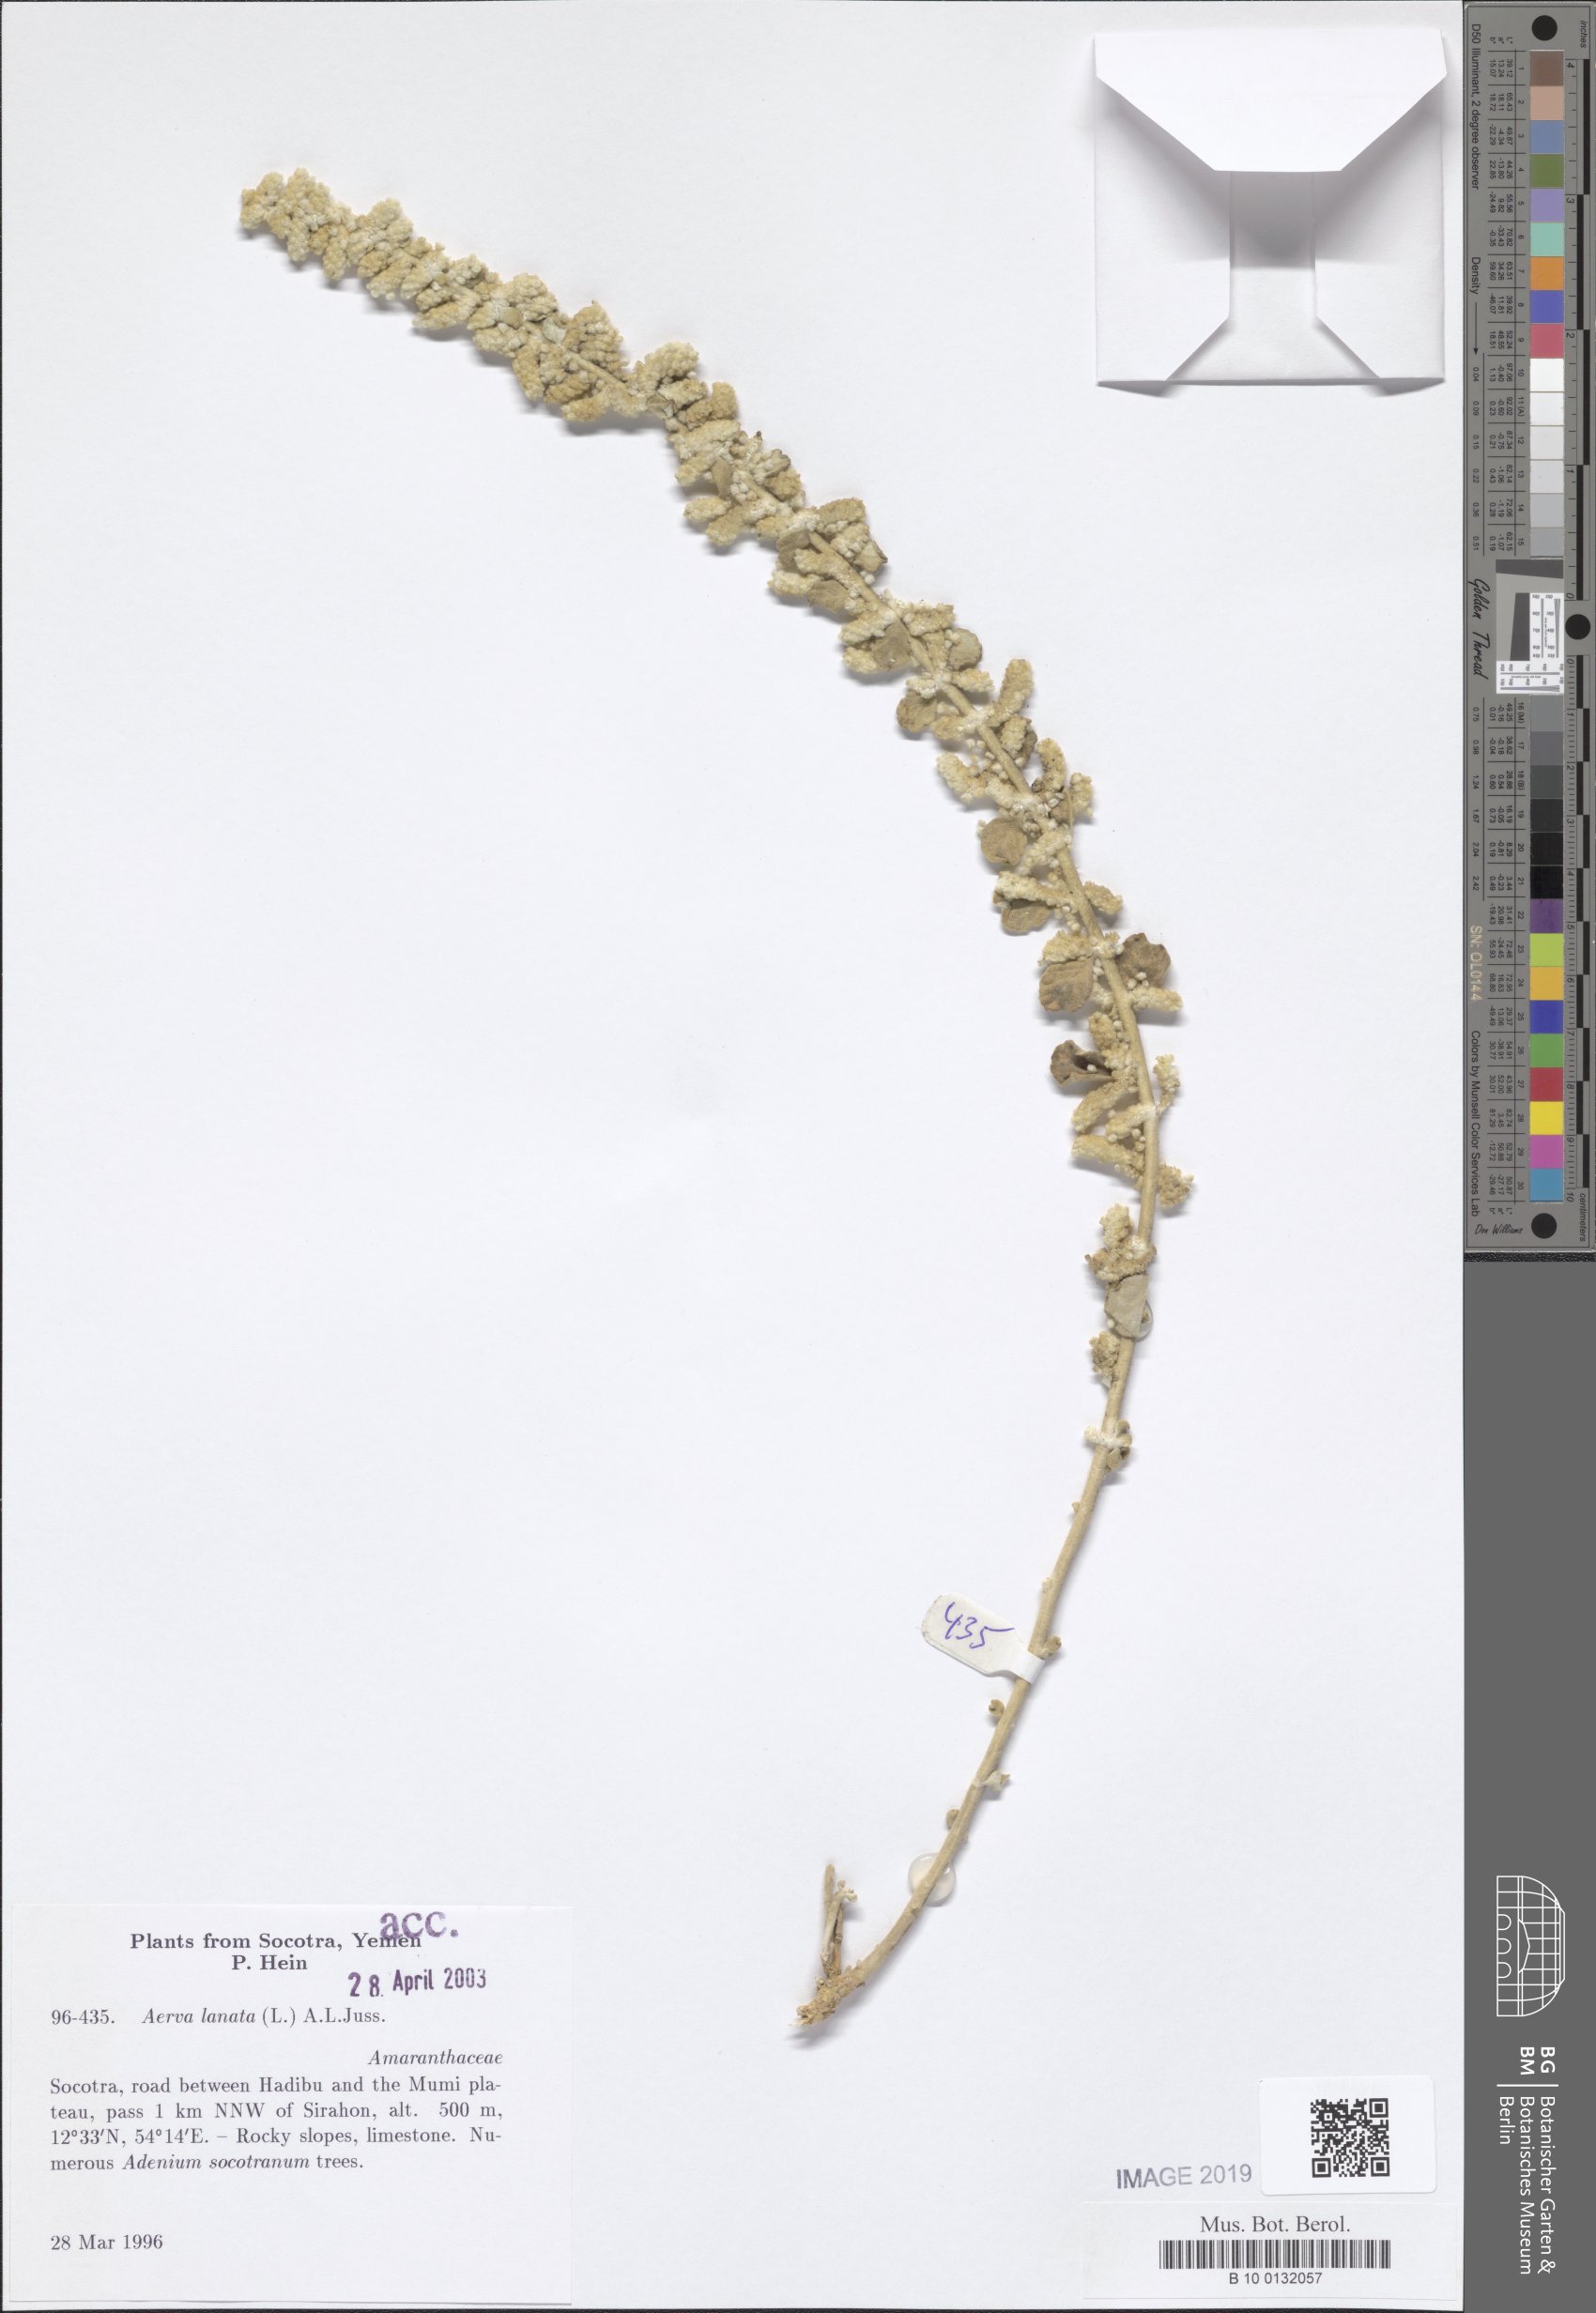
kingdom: Plantae
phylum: Tracheophyta
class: Magnoliopsida
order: Caryophyllales
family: Amaranthaceae
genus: Ouret
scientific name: Ouret lanata
